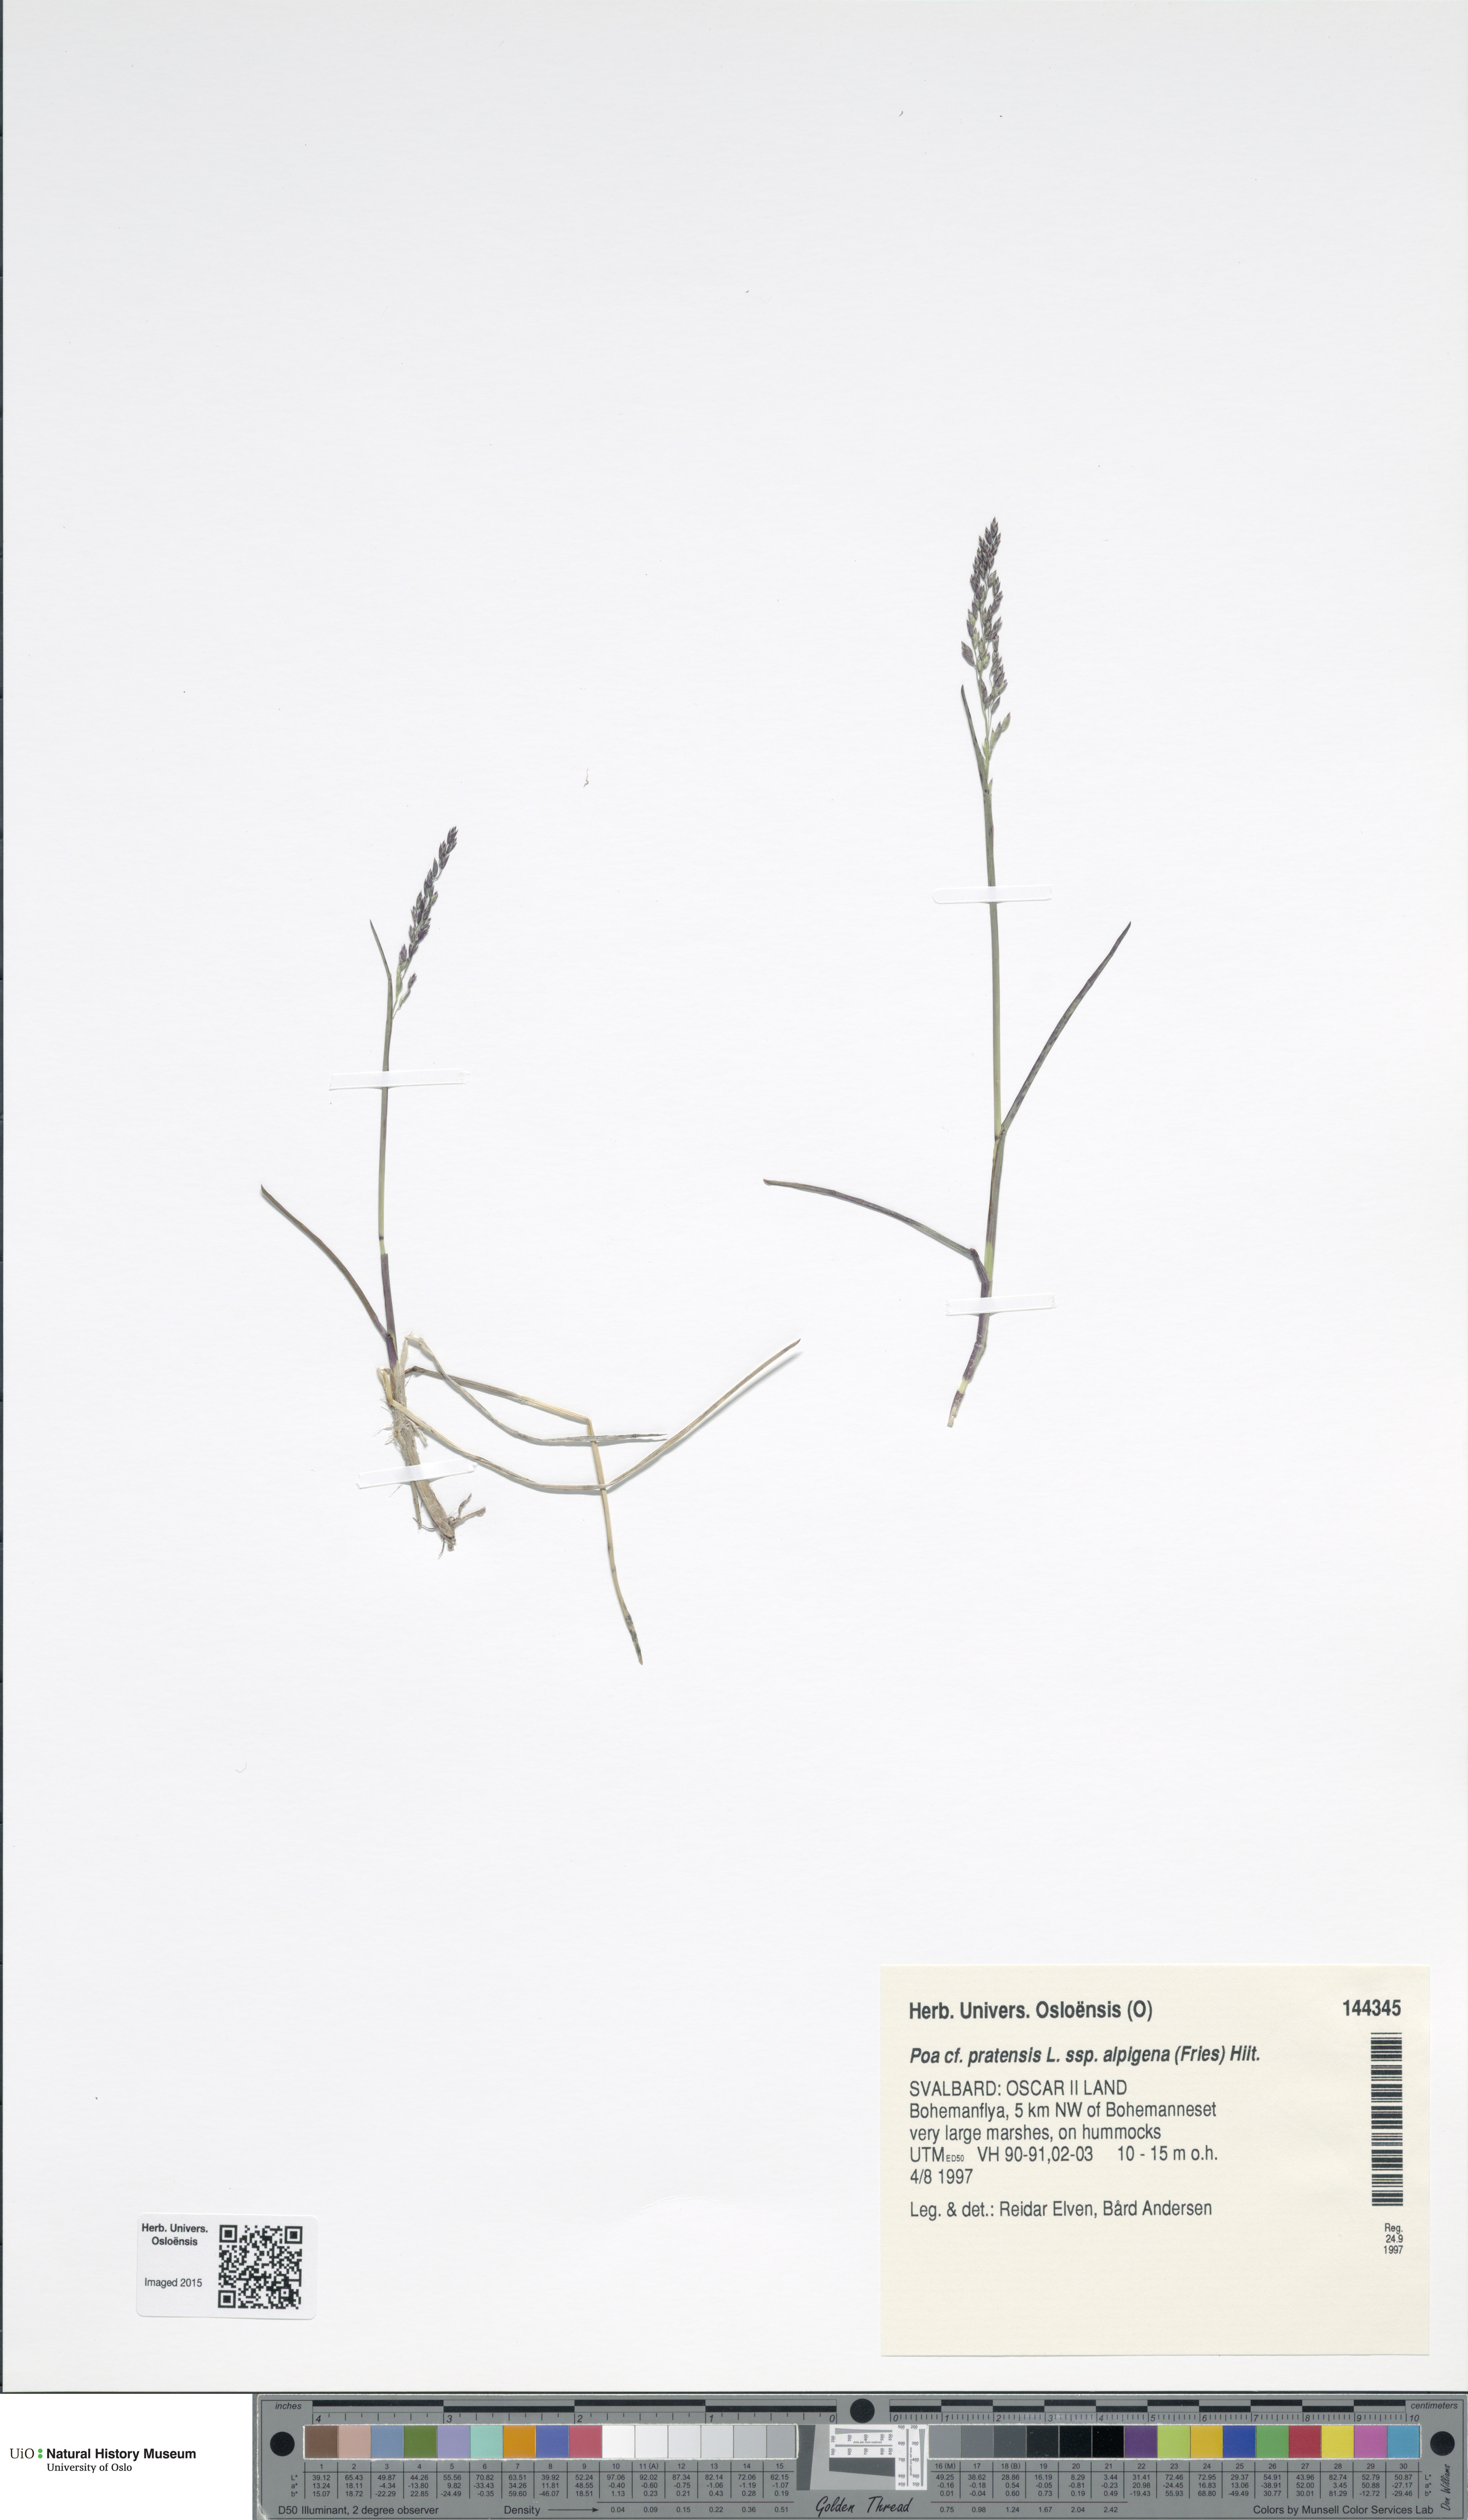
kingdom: Plantae
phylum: Tracheophyta
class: Liliopsida
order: Poales
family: Poaceae
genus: Poa
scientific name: Poa alpigena
